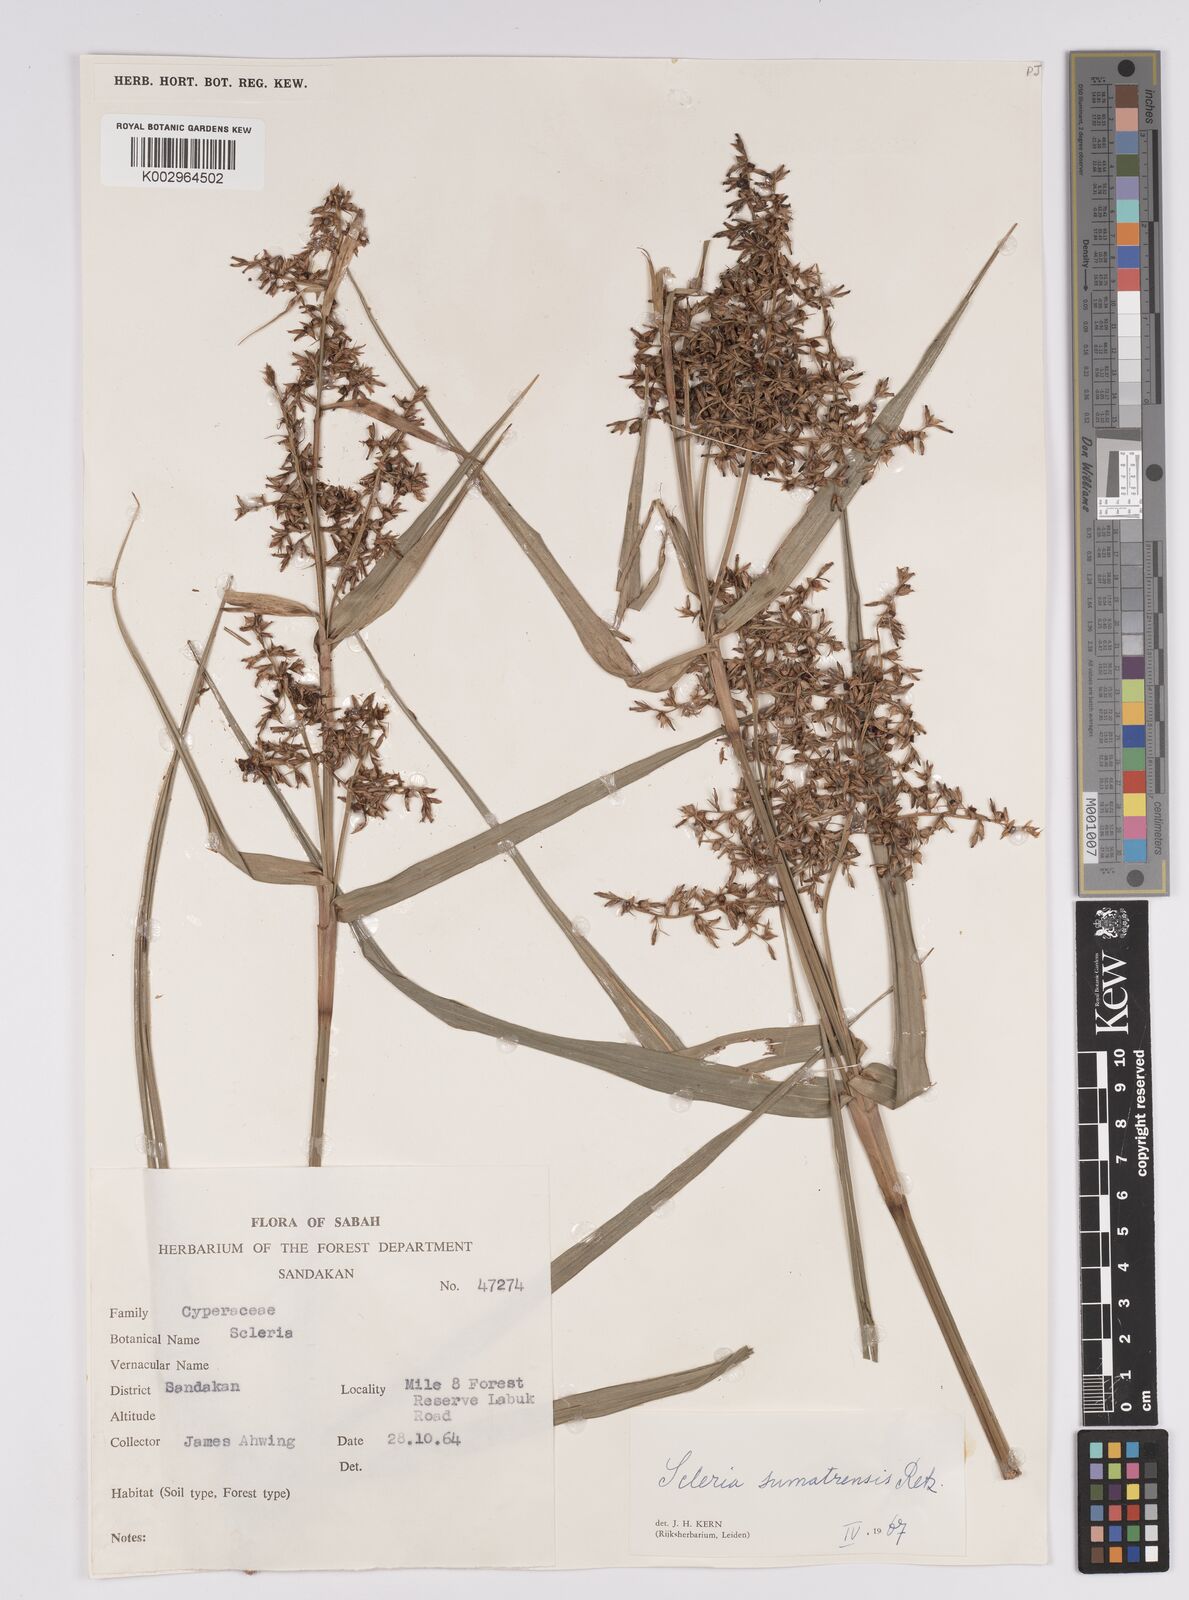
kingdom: Plantae
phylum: Tracheophyta
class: Liliopsida
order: Poales
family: Cyperaceae
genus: Scleria
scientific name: Scleria sumatrensis
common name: Sumatran scleria
